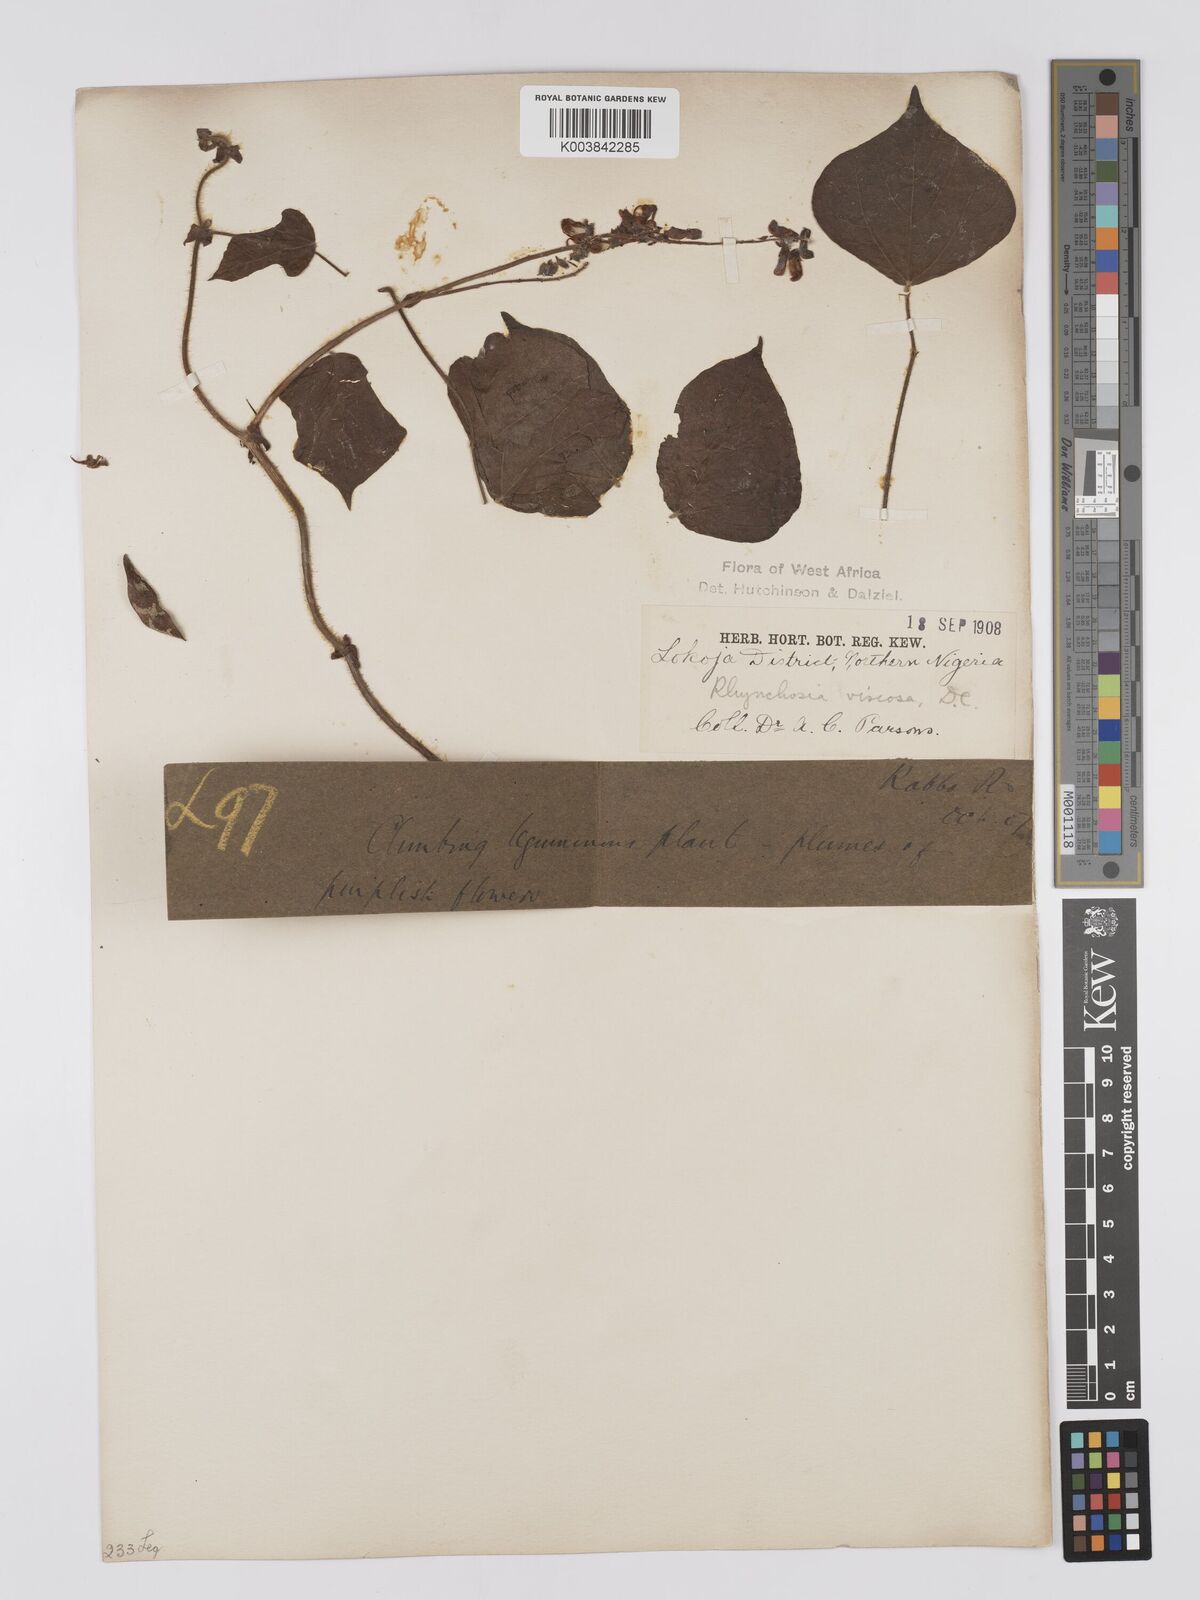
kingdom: Plantae
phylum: Tracheophyta
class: Magnoliopsida
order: Fabales
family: Fabaceae
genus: Rhynchosia
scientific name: Rhynchosia viscosa
